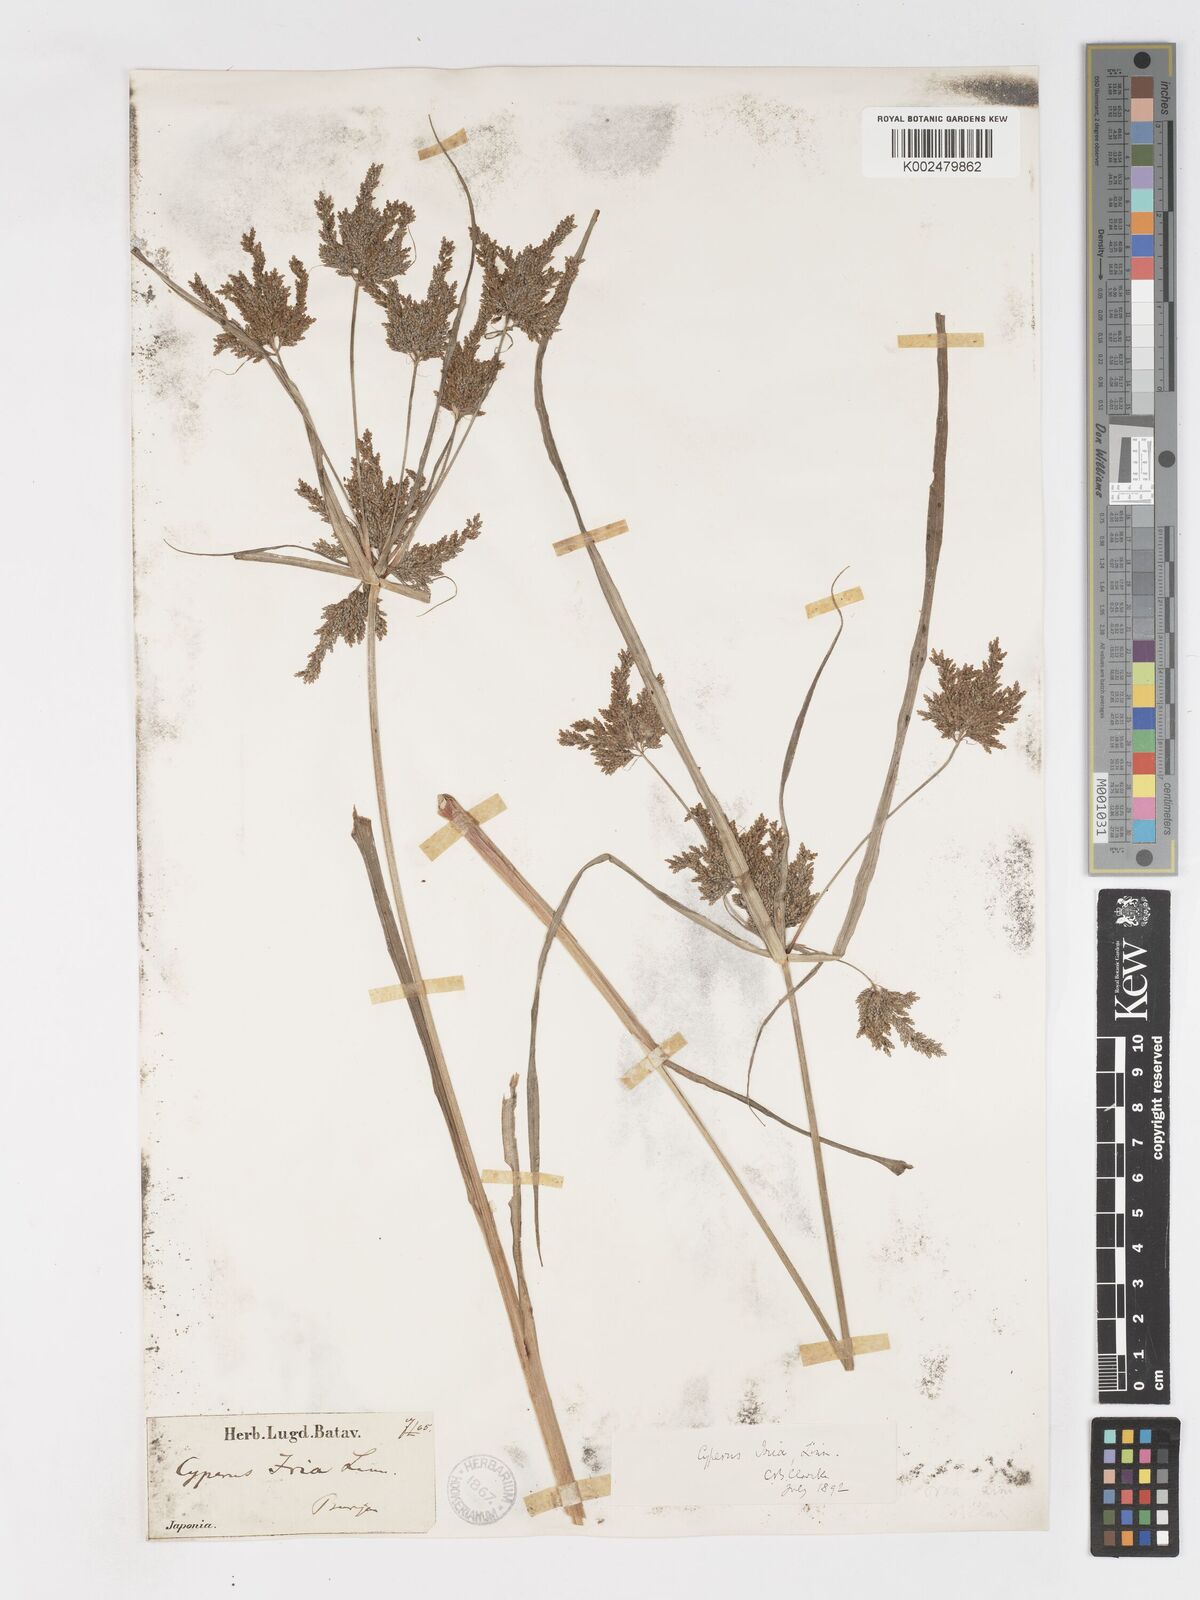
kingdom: Plantae
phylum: Tracheophyta
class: Liliopsida
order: Poales
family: Cyperaceae
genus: Cyperus
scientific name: Cyperus iria
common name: Ricefield flatsedge
